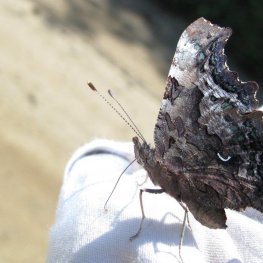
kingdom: Animalia
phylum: Arthropoda
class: Insecta
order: Lepidoptera
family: Nymphalidae
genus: Polygonia
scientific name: Polygonia faunus
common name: Green Comma
